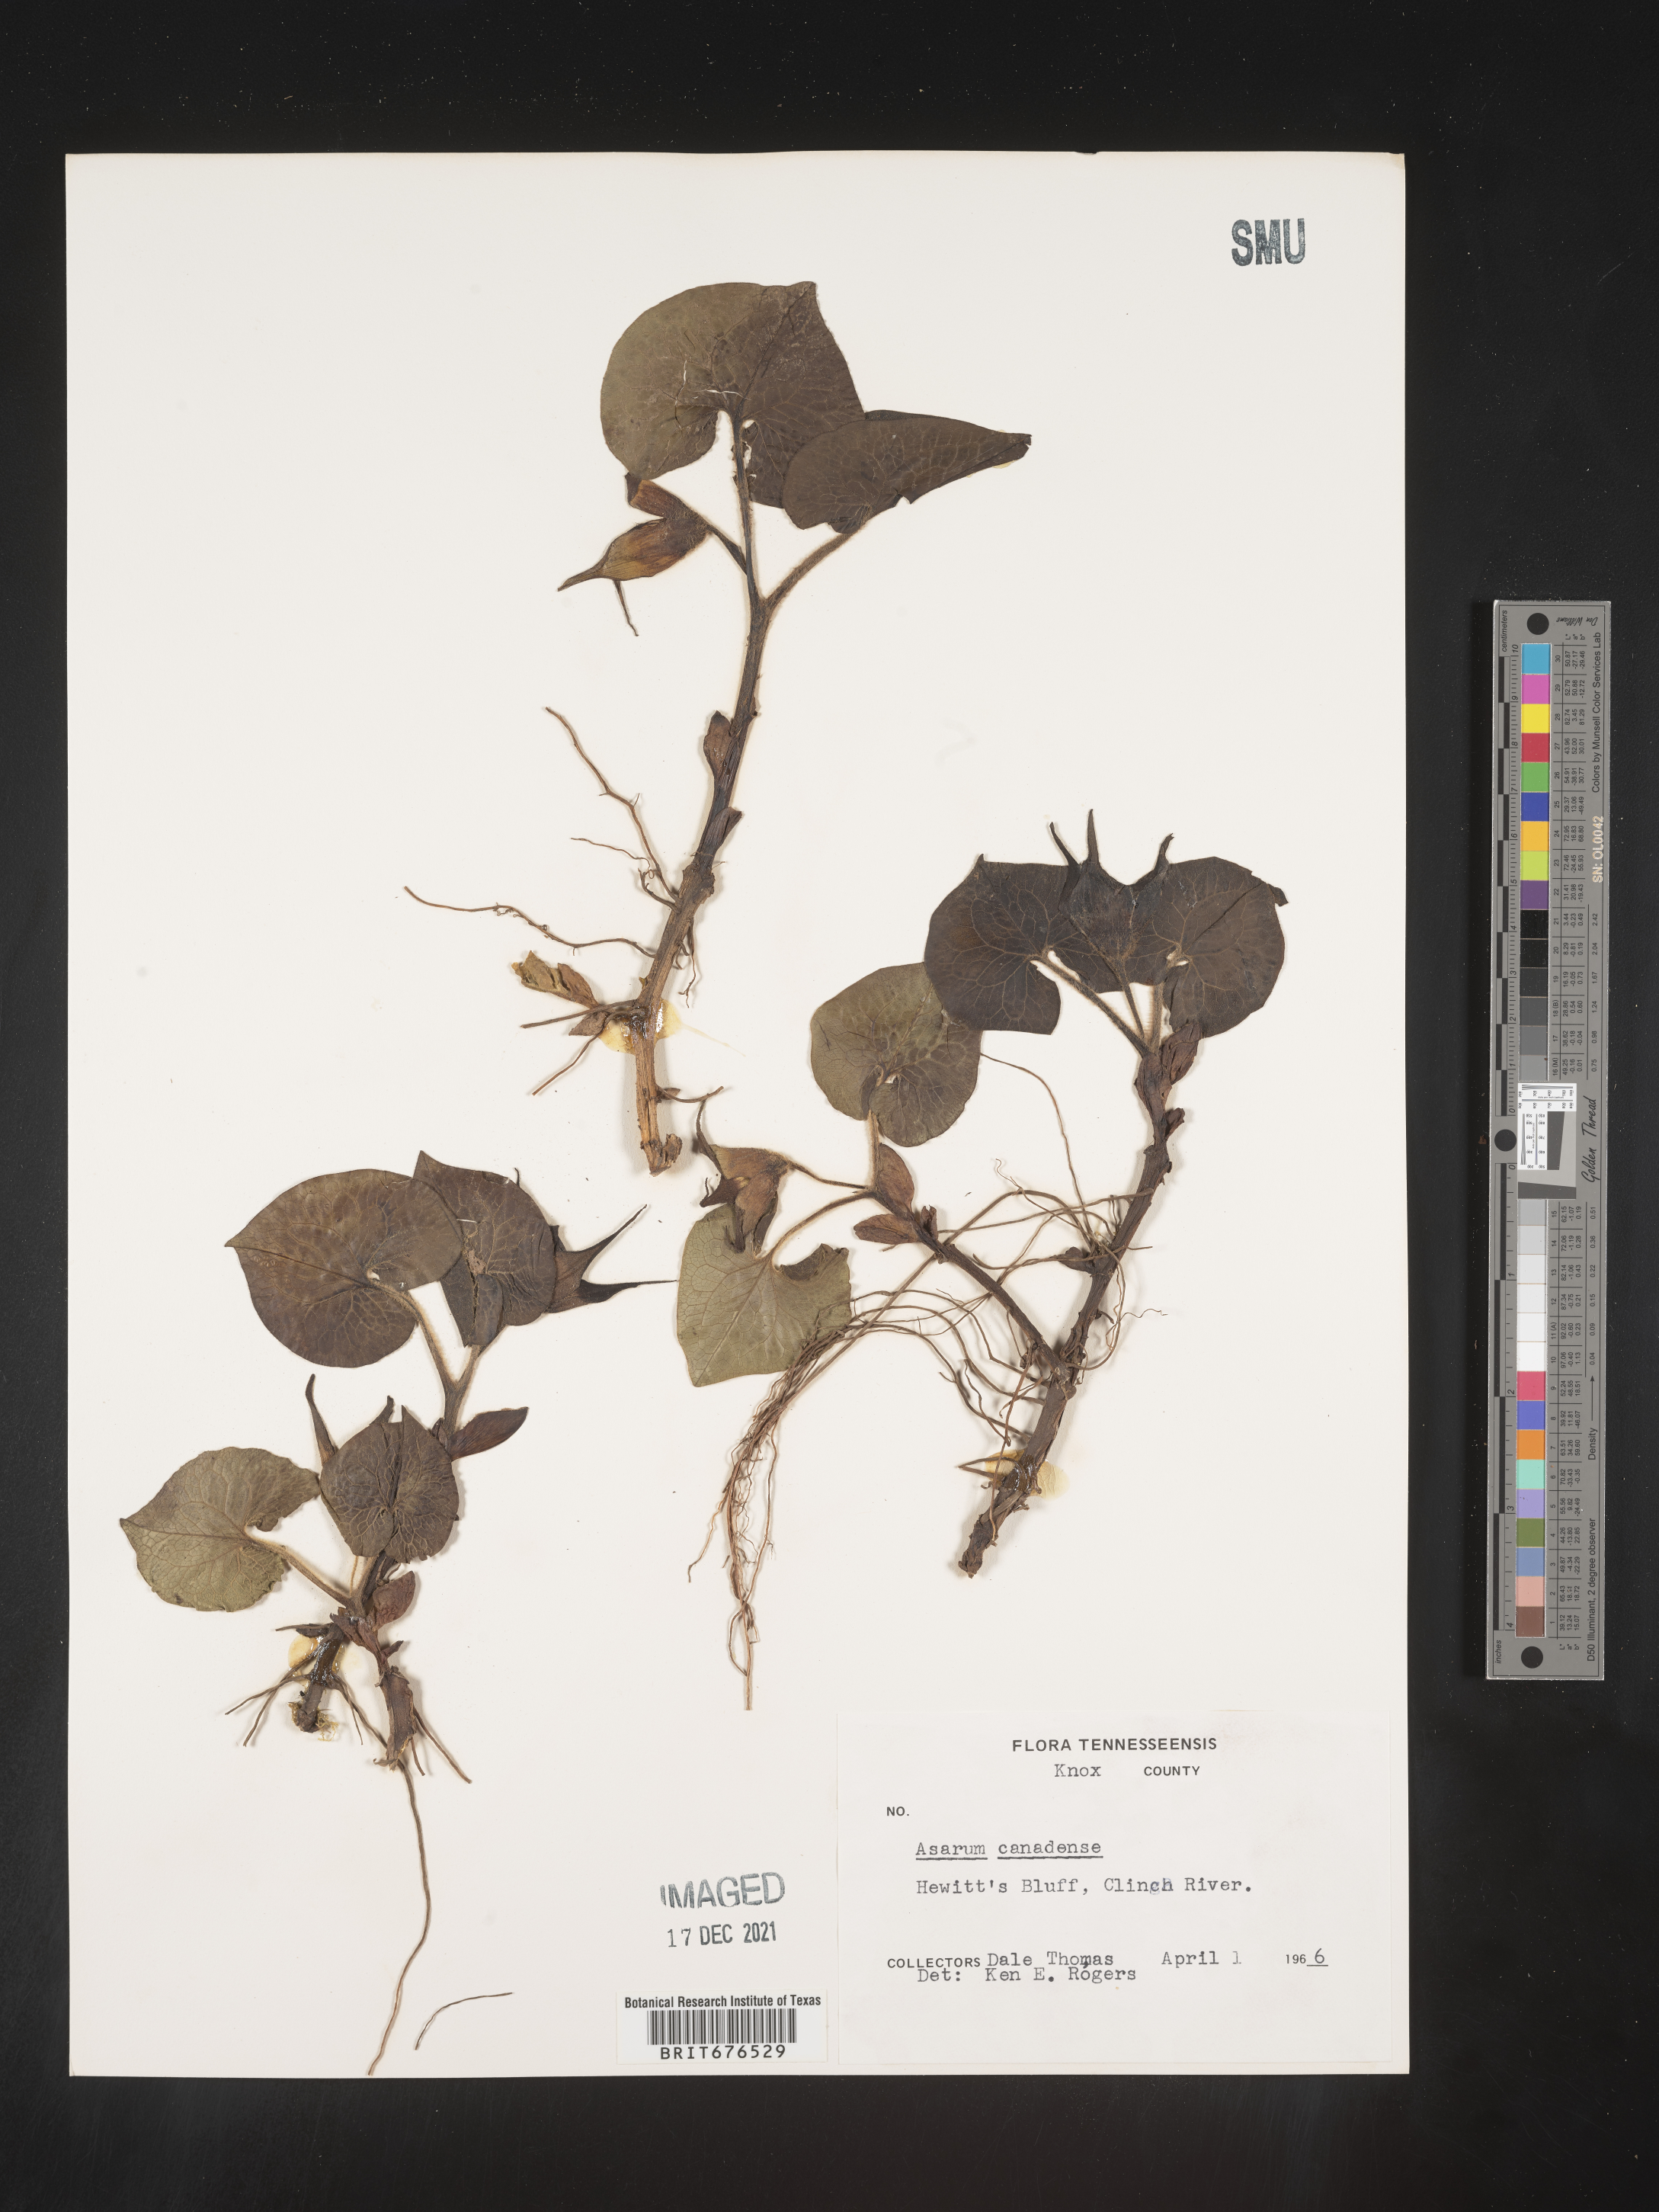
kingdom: Plantae
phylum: Tracheophyta
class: Magnoliopsida
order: Piperales
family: Aristolochiaceae
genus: Asarum
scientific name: Asarum canadense
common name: Wild ginger
